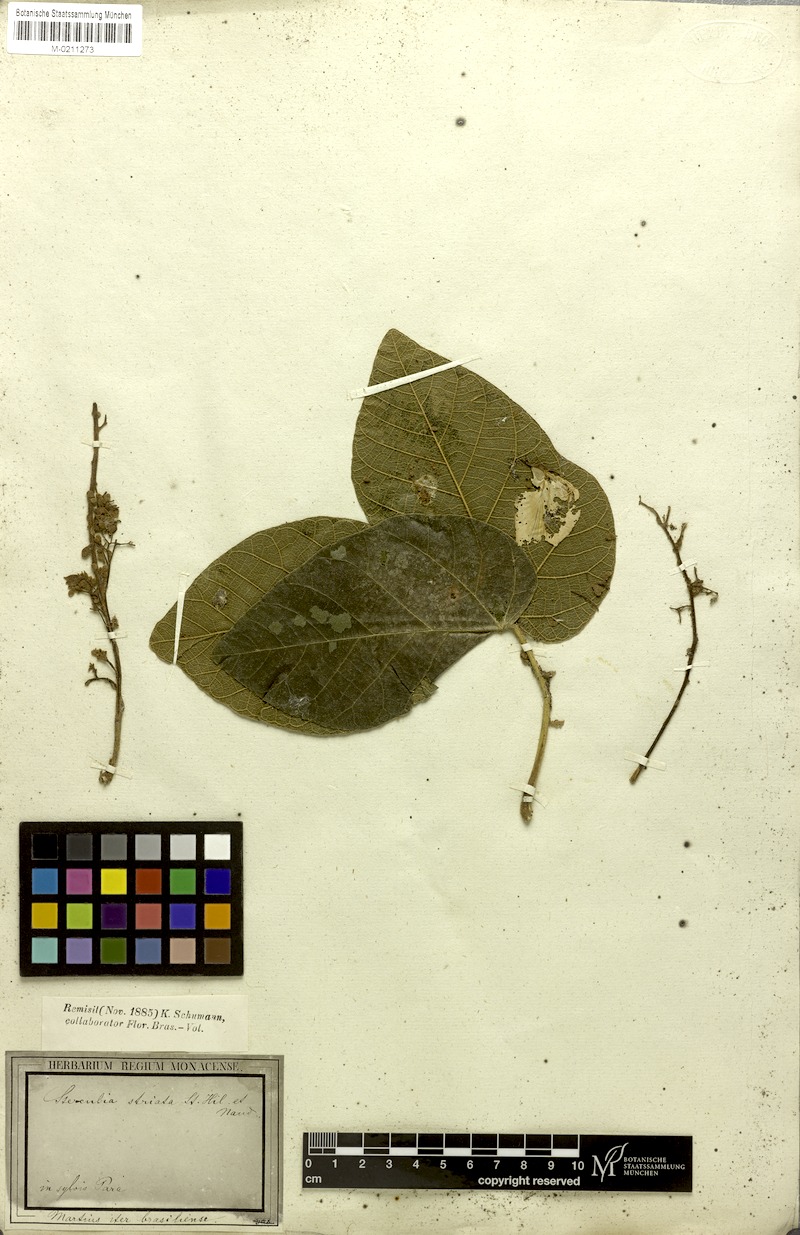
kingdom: Plantae
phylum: Tracheophyta
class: Magnoliopsida
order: Malvales
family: Malvaceae
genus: Sterculia
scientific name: Sterculia striata
